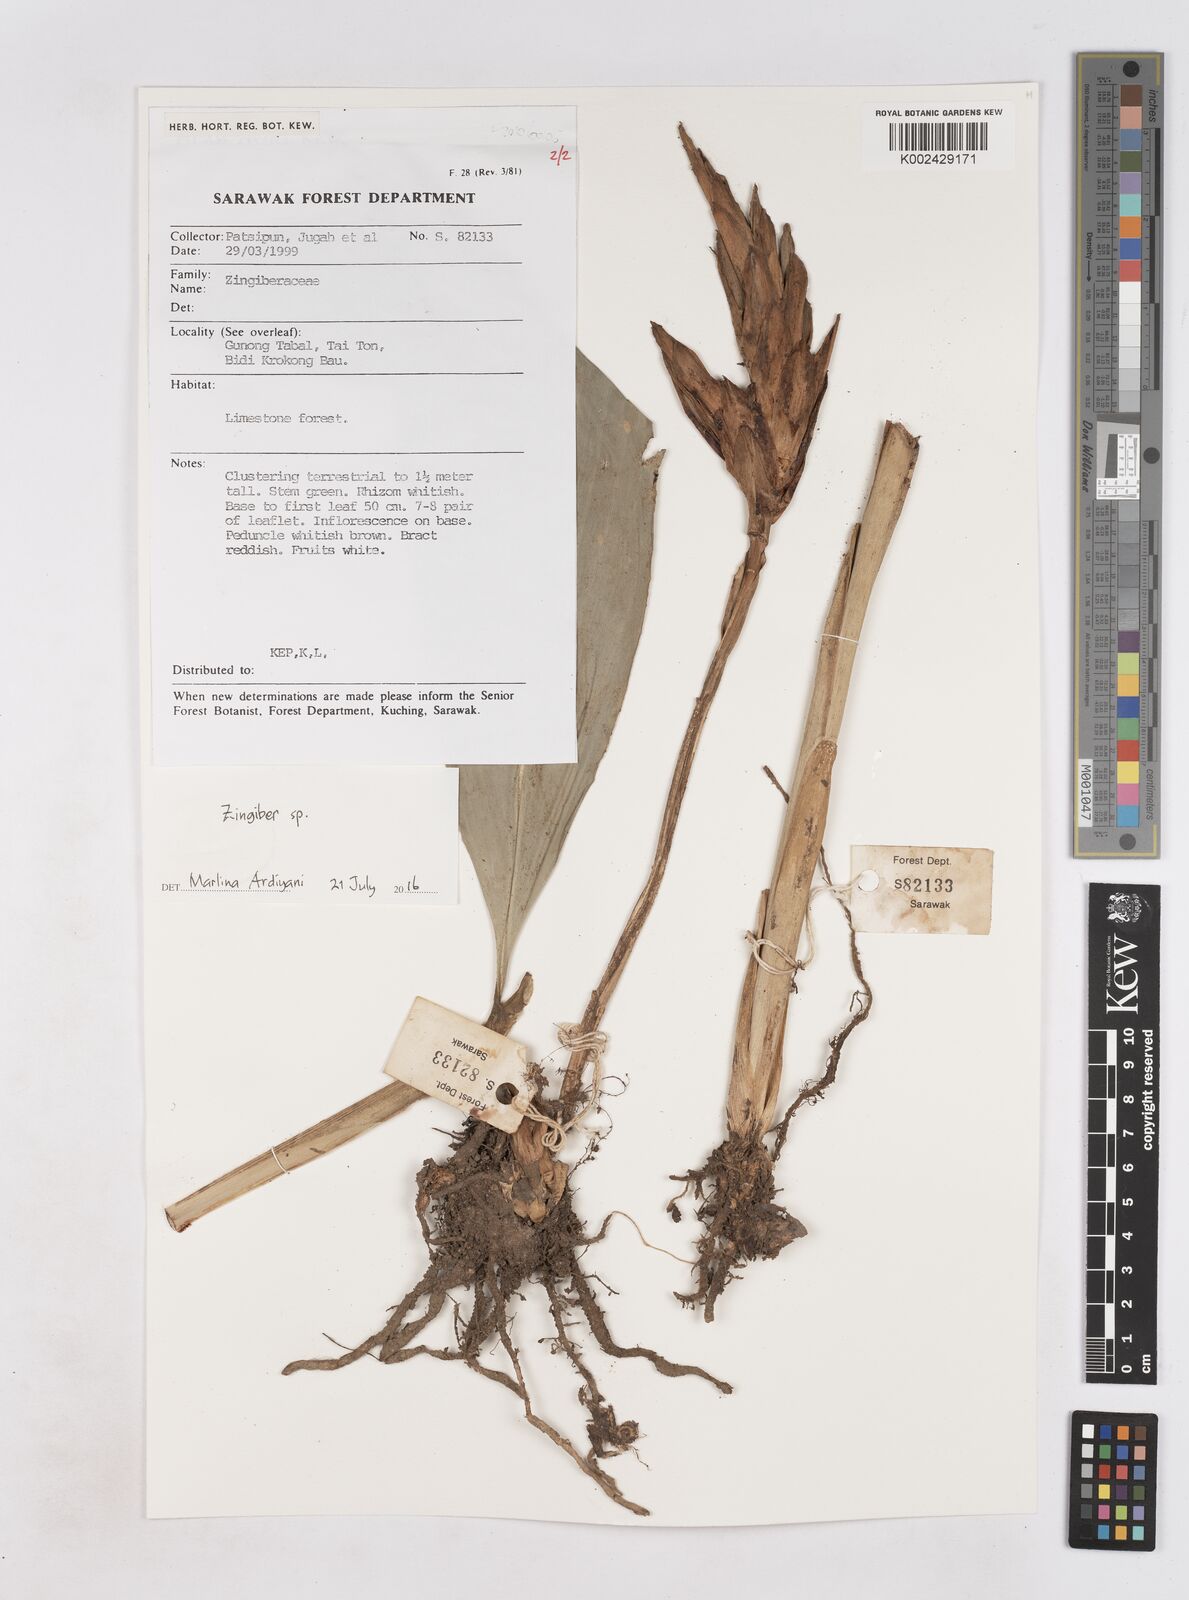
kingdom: Plantae
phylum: Tracheophyta
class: Liliopsida
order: Zingiberales
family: Zingiberaceae
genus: Zingiber
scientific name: Zingiber
